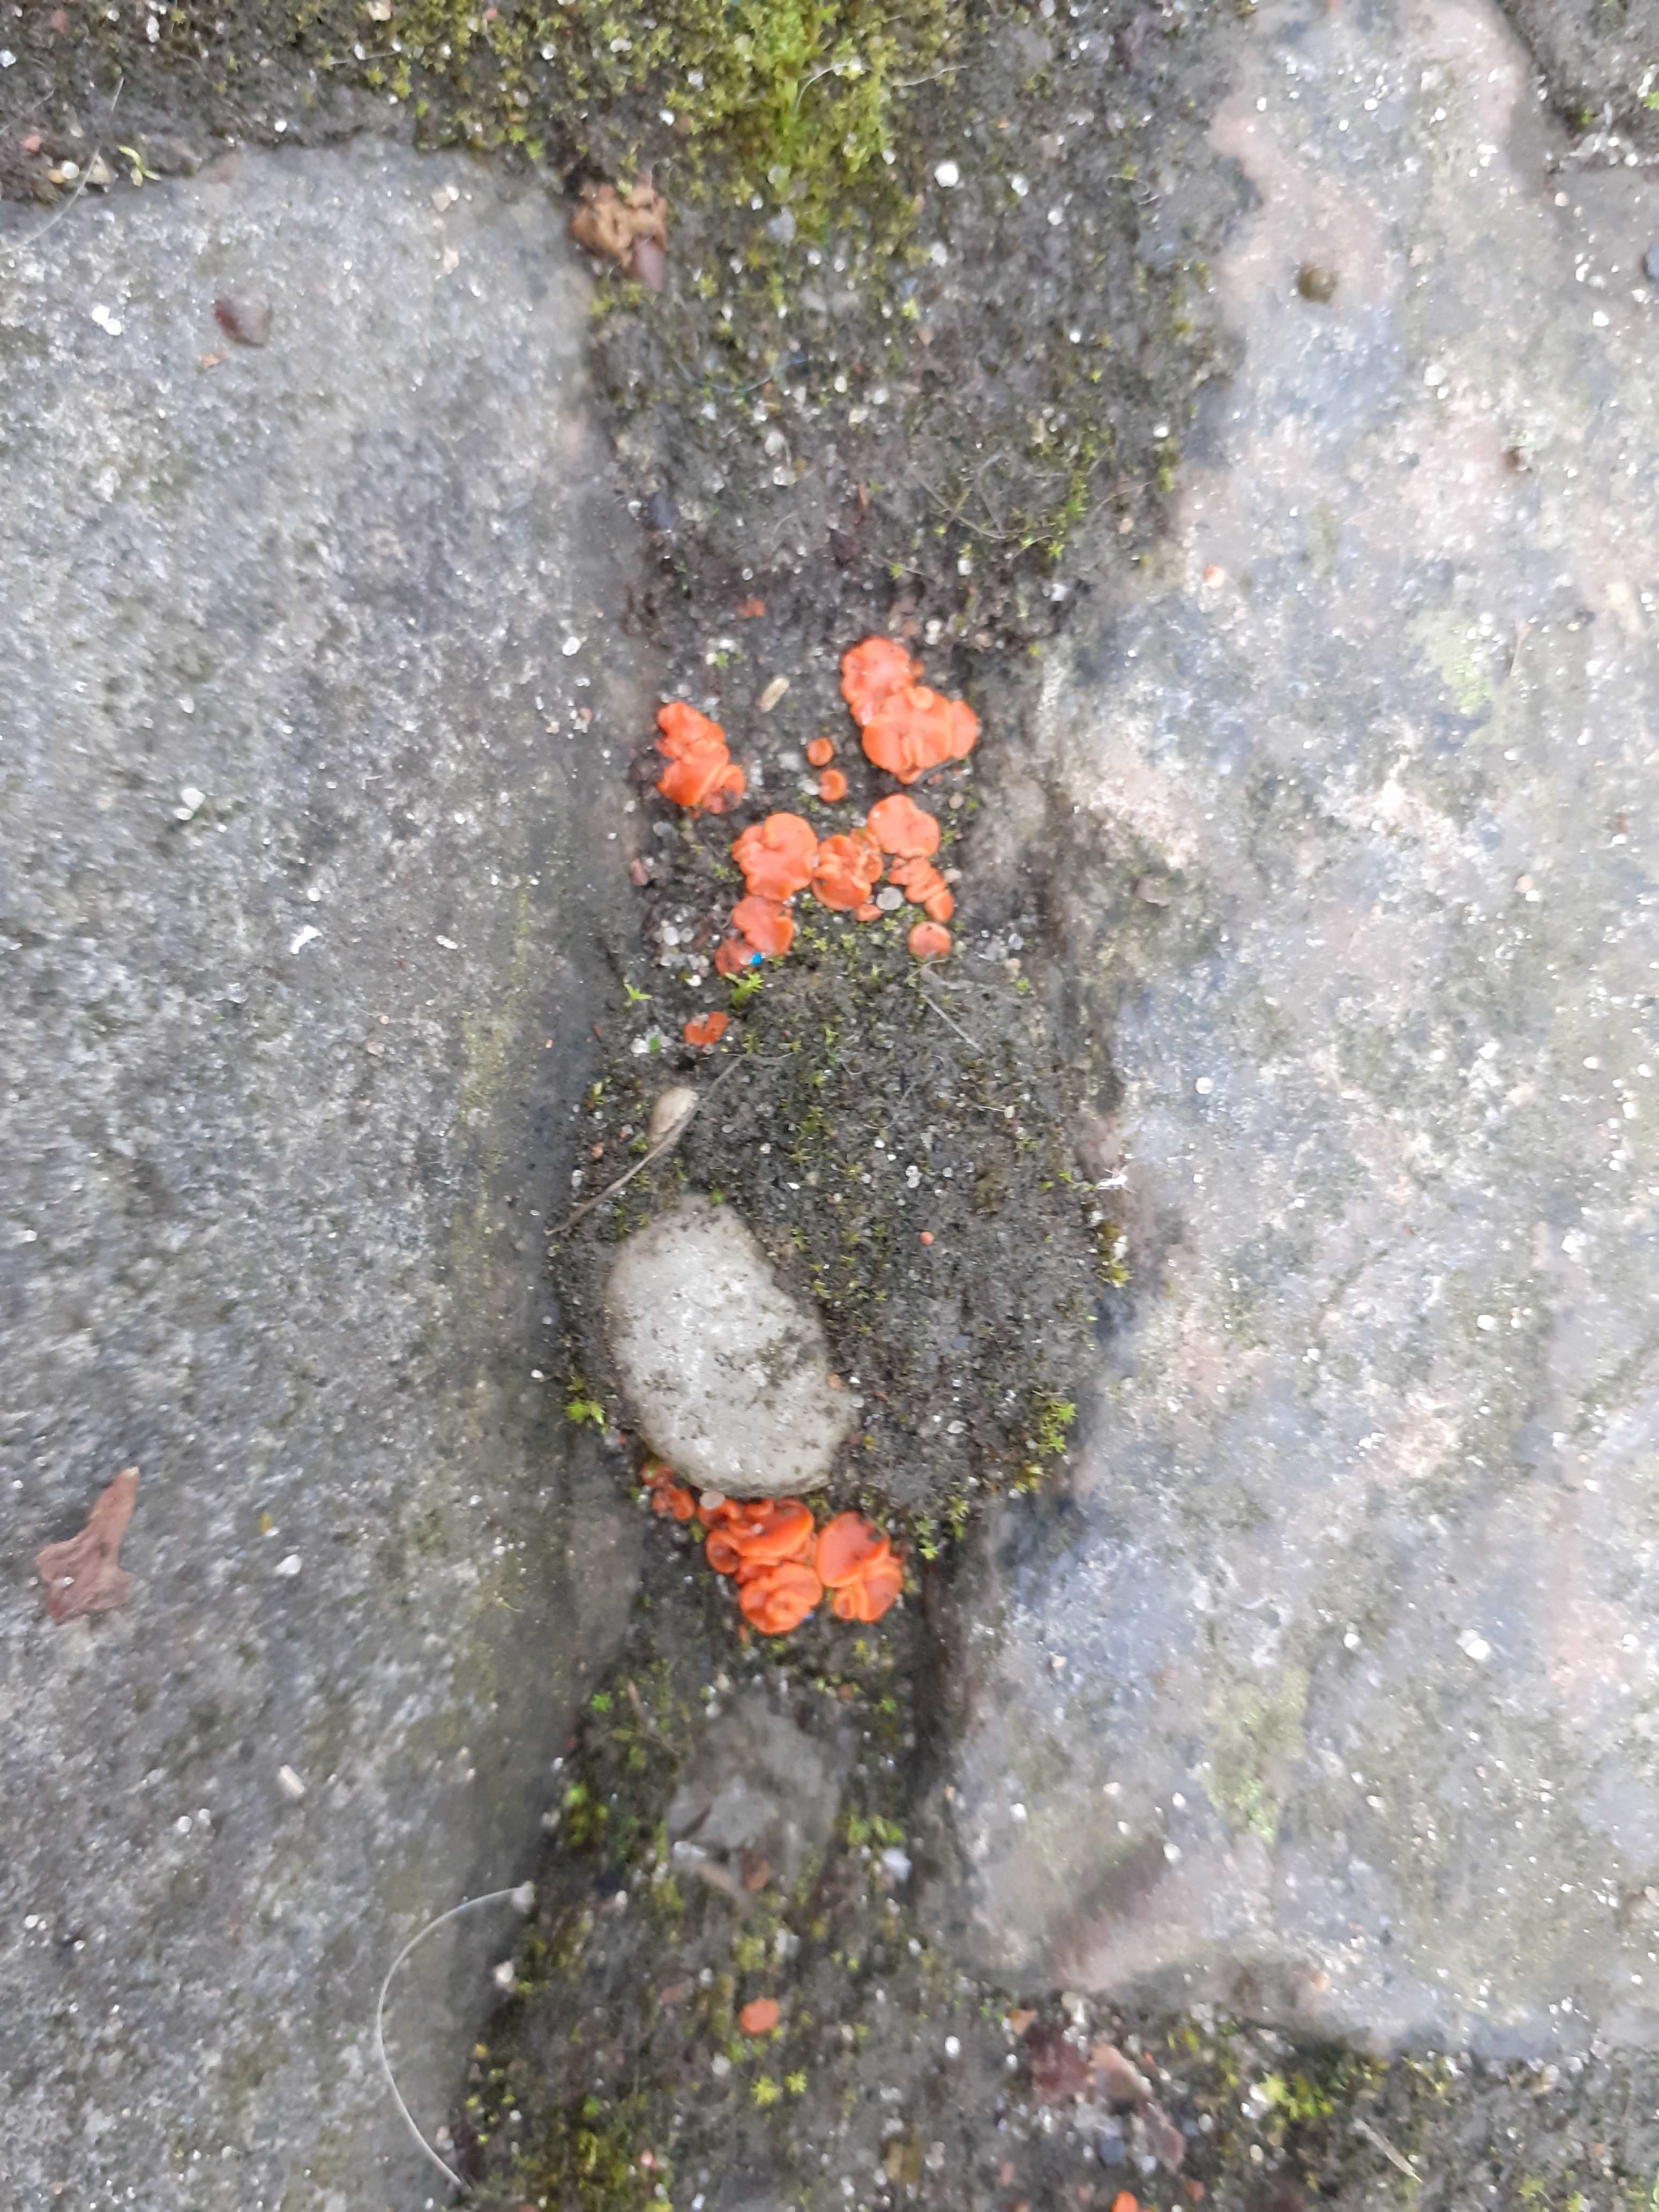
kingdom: Fungi
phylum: Ascomycota
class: Pezizomycetes
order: Pezizales
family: Pulvinulaceae
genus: Pulvinula
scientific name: Pulvinula miltina
